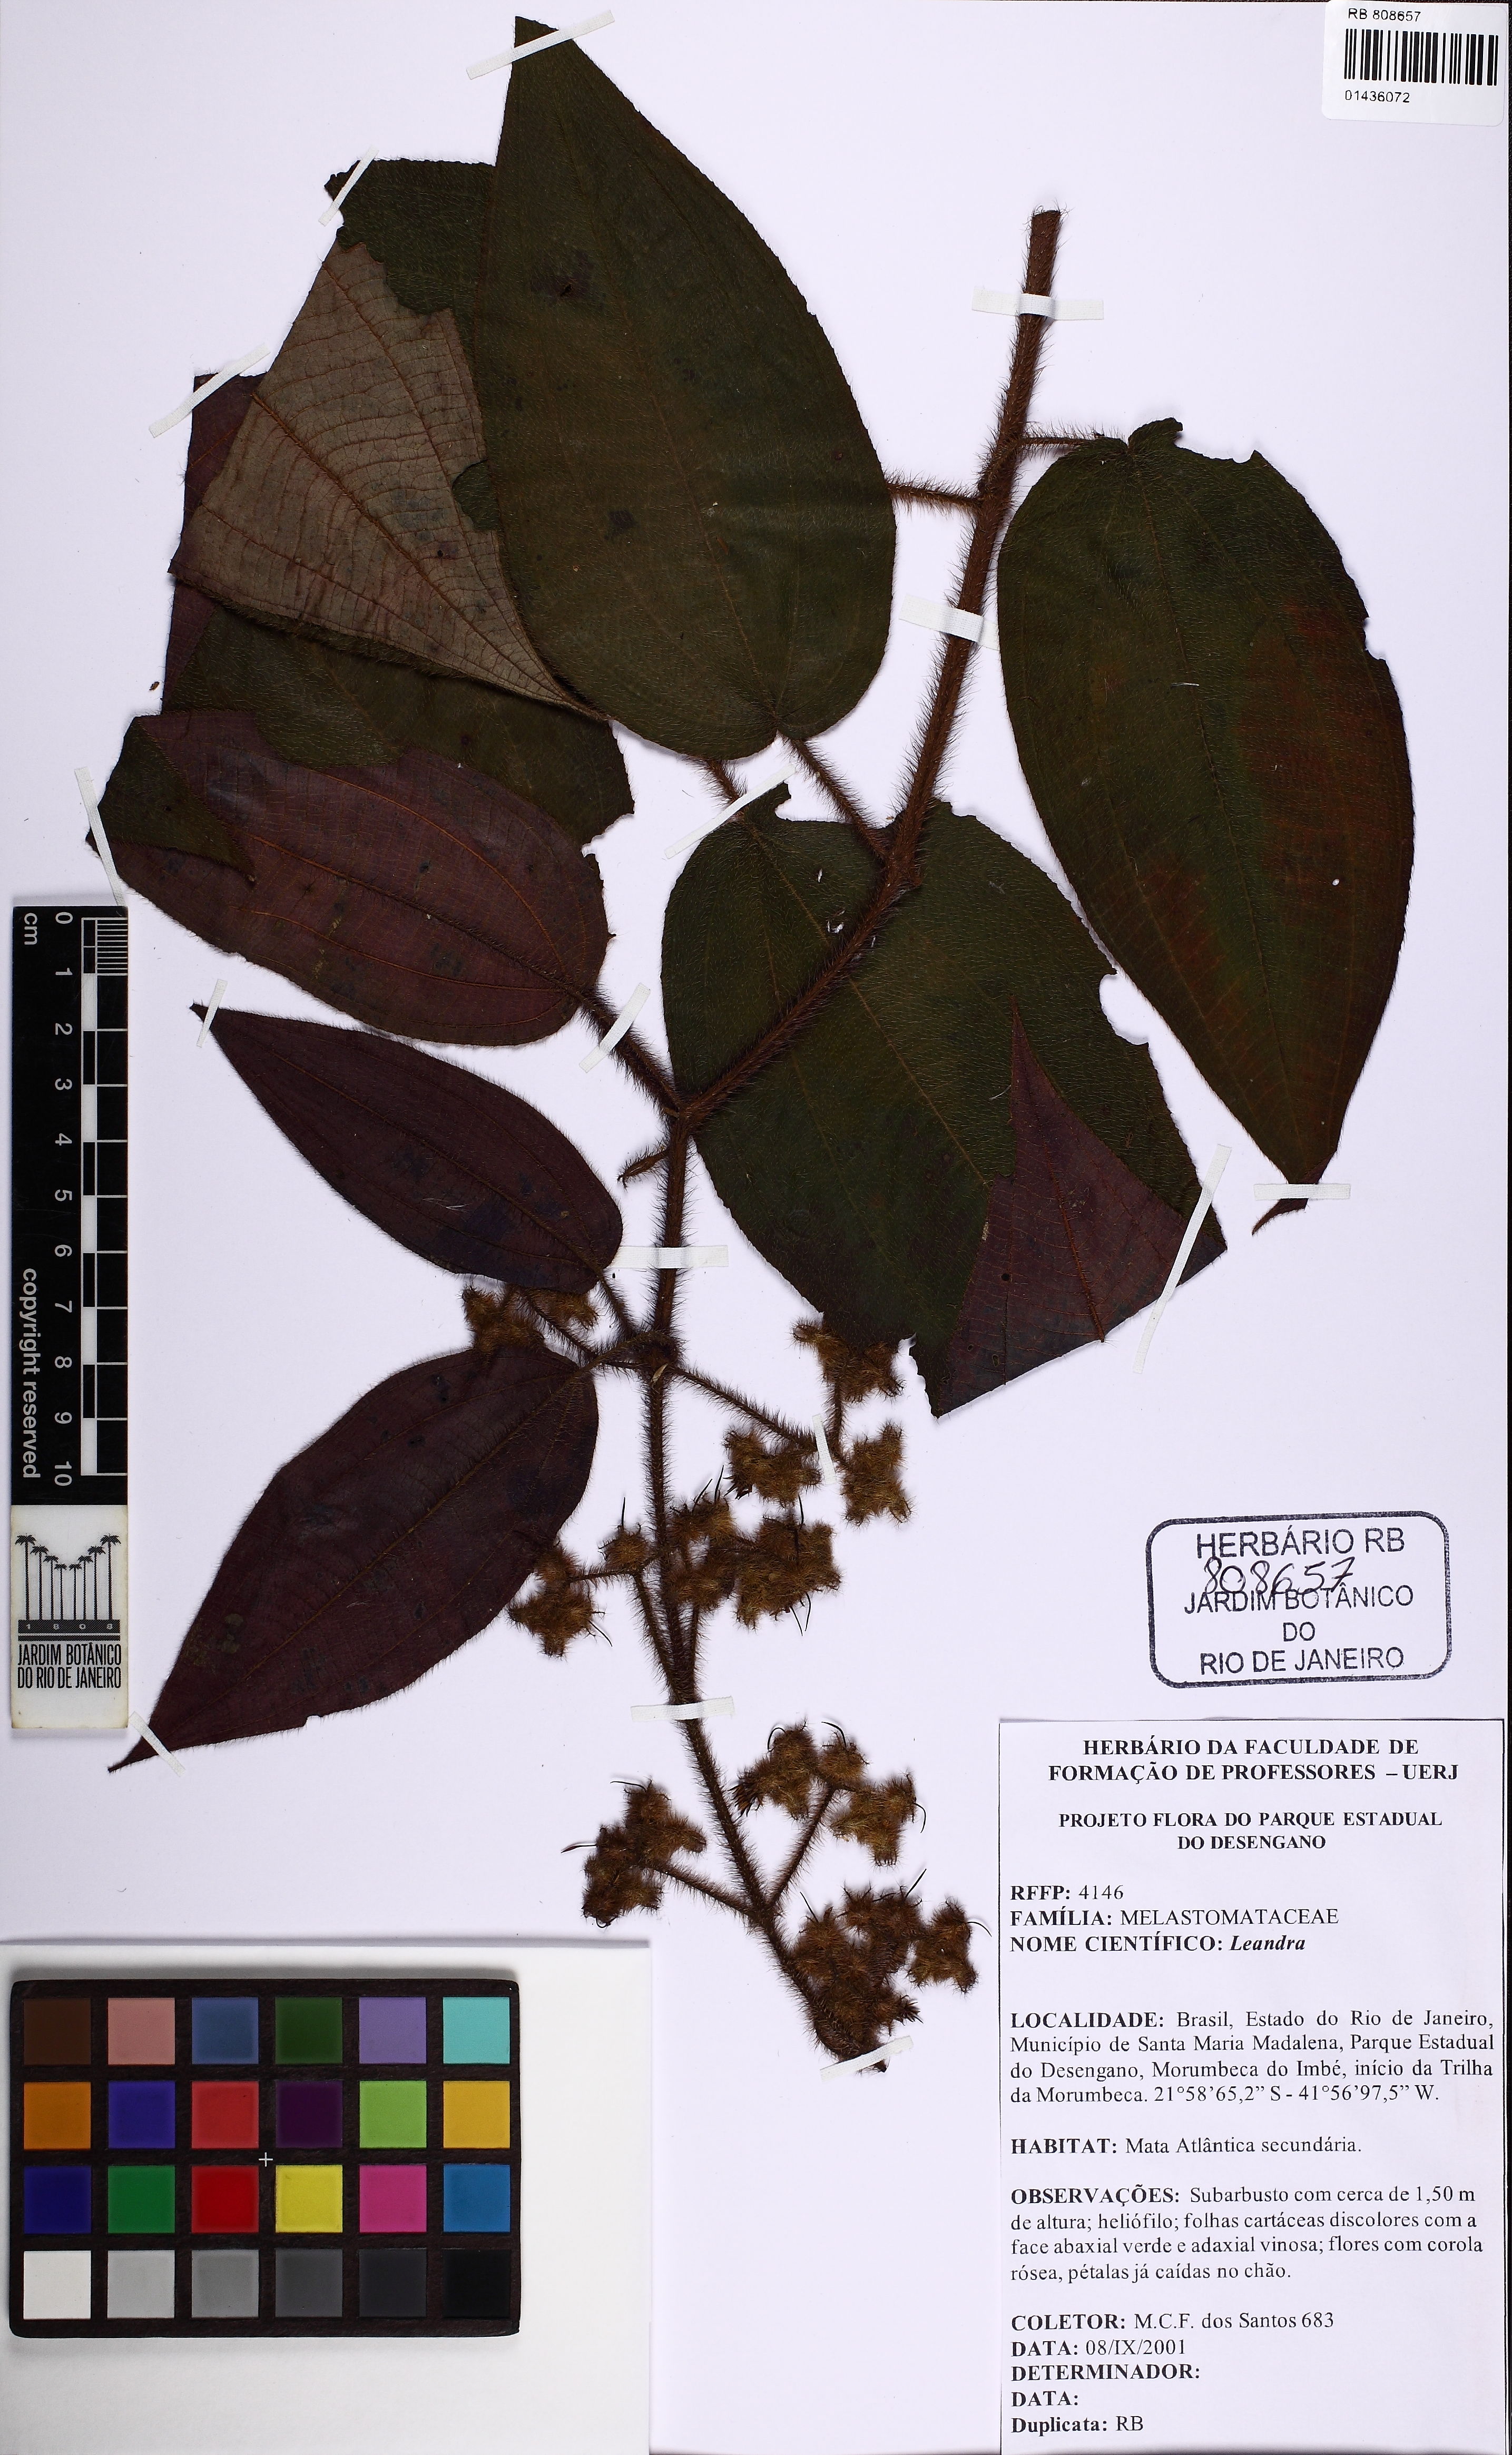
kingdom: Plantae
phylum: Tracheophyta
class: Magnoliopsida
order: Myrtales
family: Melastomataceae
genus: Miconia
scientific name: Miconia
